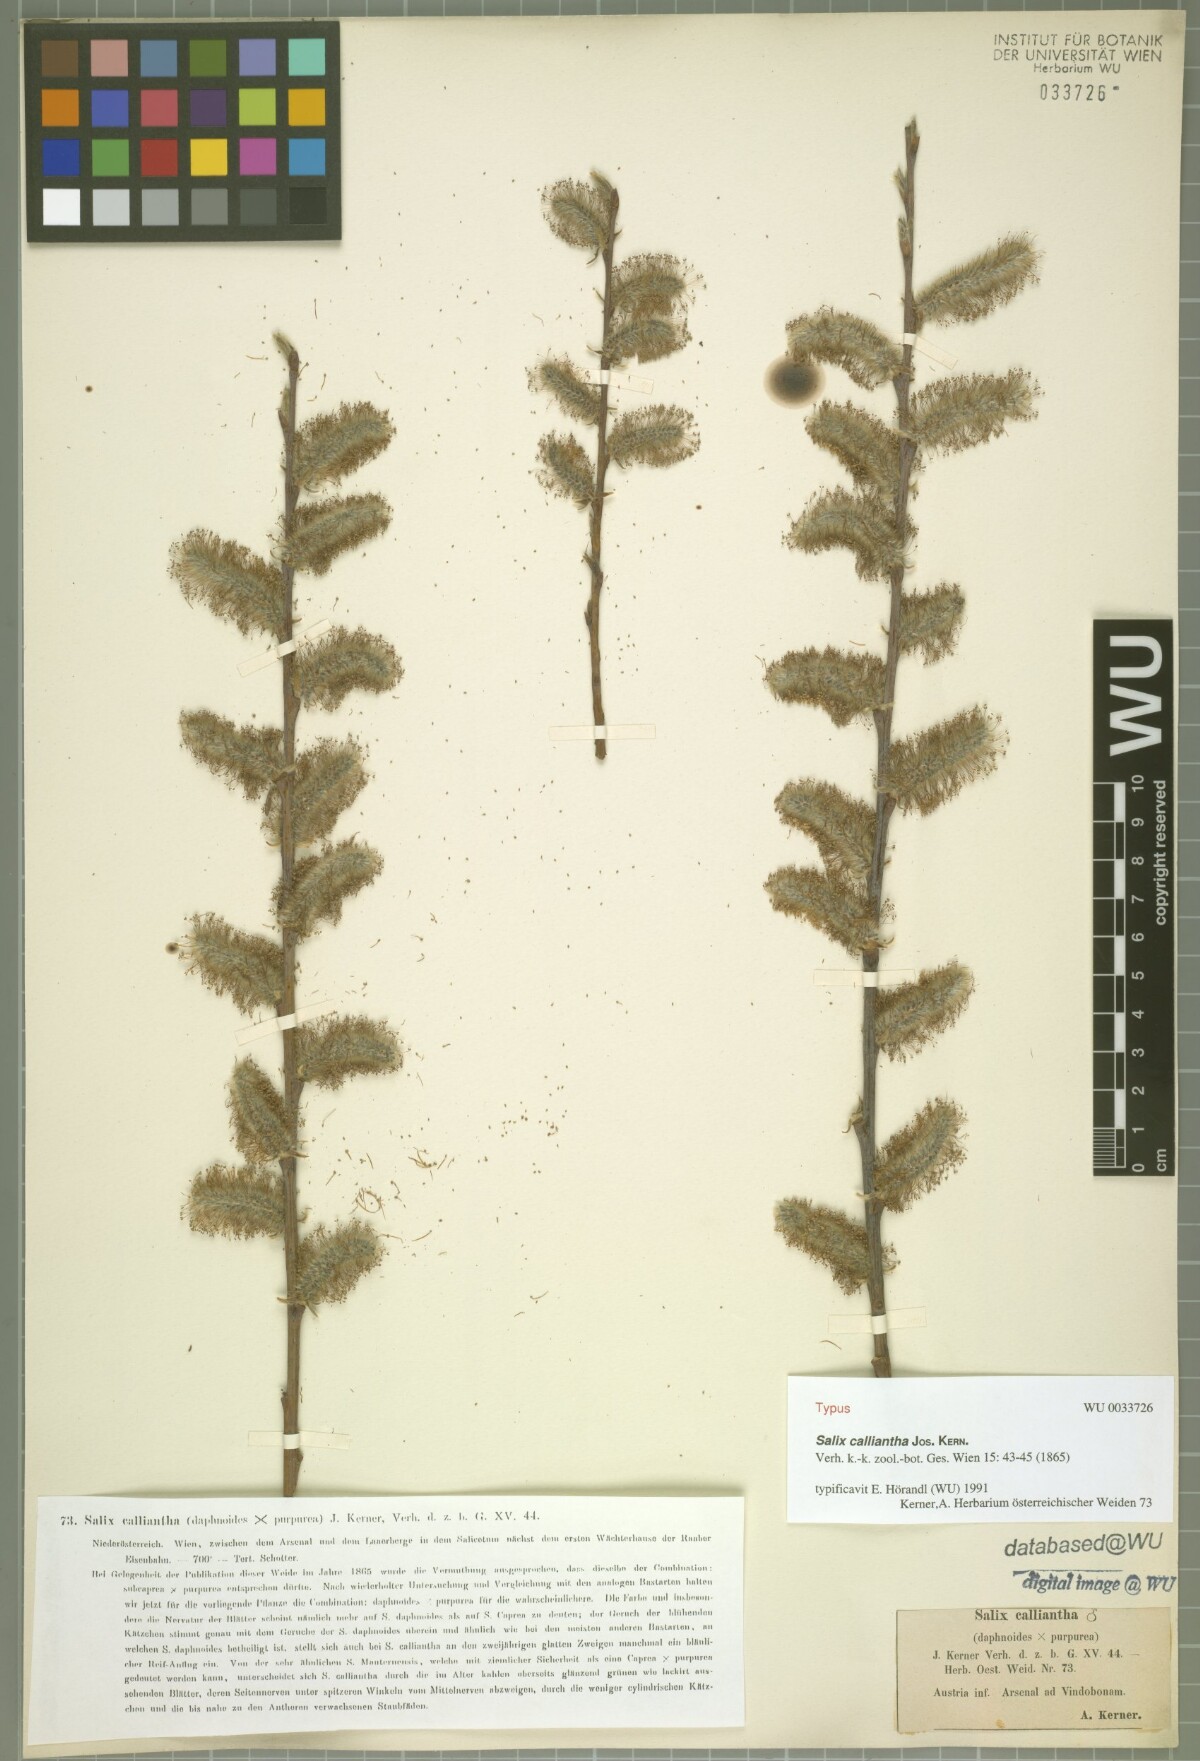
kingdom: Plantae
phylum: Tracheophyta
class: Magnoliopsida
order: Malpighiales
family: Salicaceae
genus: Salix
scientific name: Salix calliantha
